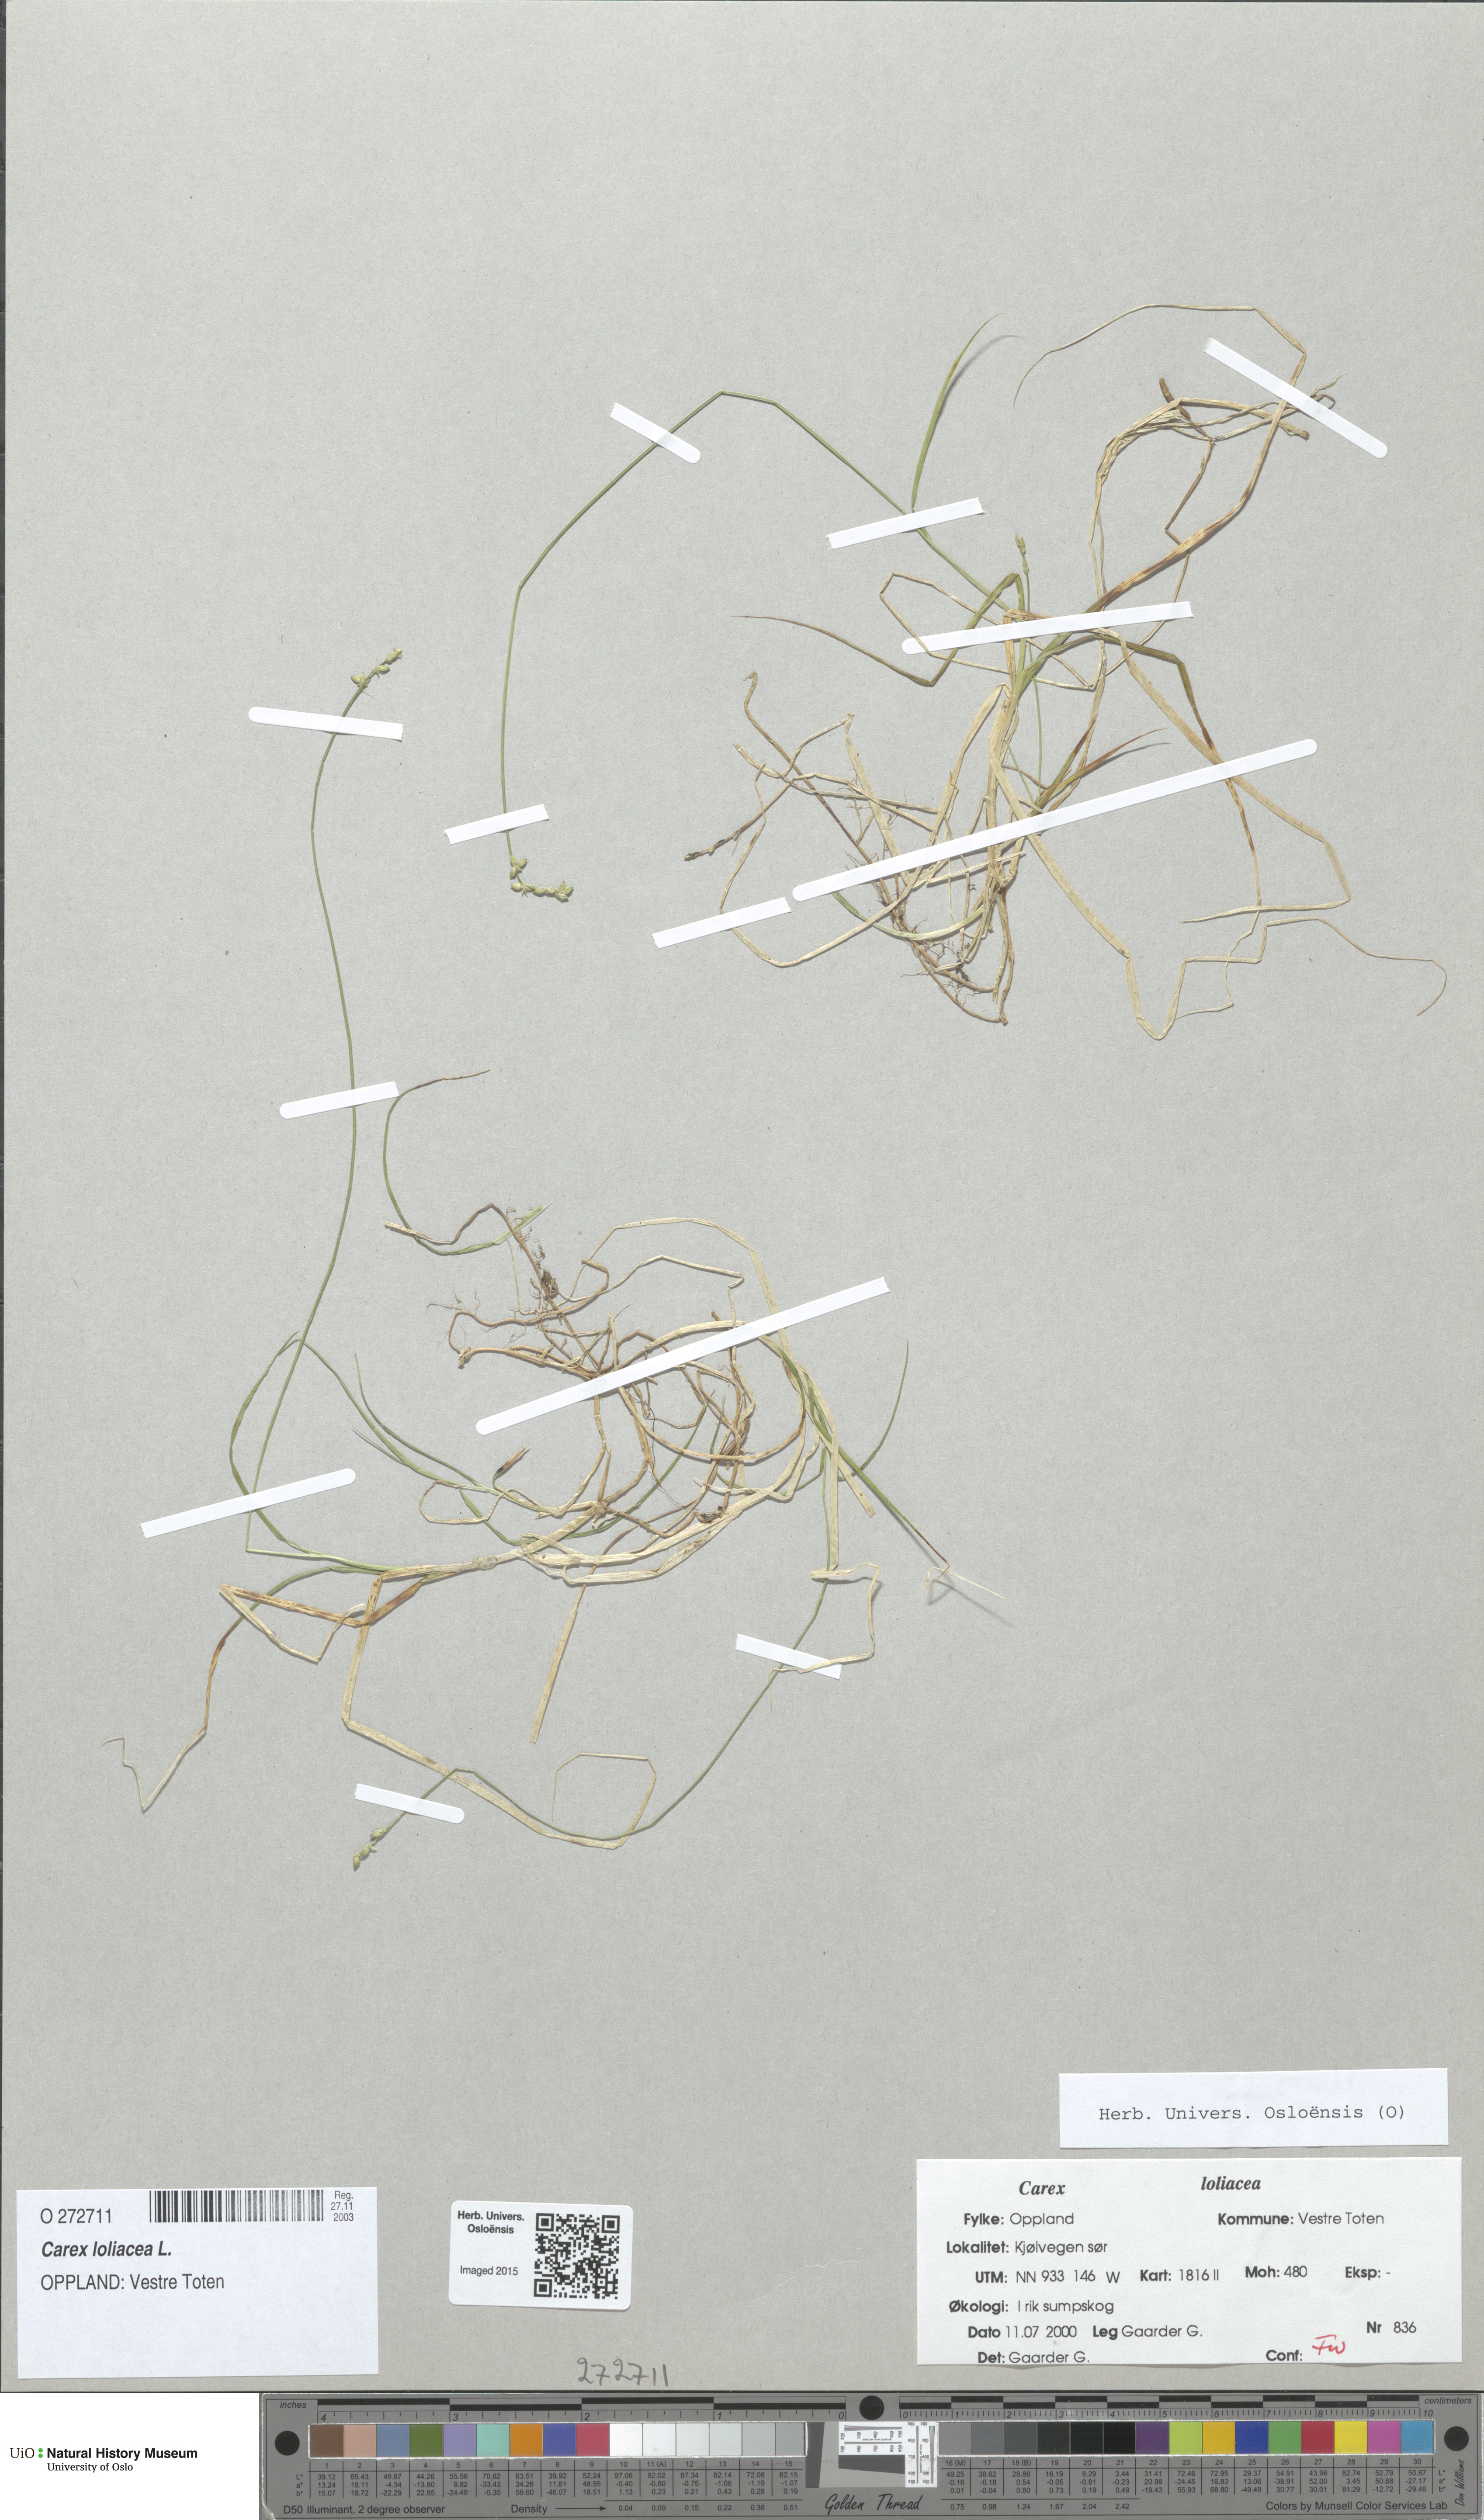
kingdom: Plantae
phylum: Tracheophyta
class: Liliopsida
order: Poales
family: Cyperaceae
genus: Carex
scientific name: Carex loliacea
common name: Ryegrass sedge
